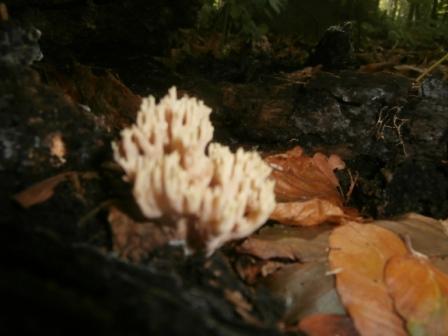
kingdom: Fungi
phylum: Basidiomycota
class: Agaricomycetes
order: Gomphales
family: Gomphaceae
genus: Ramaria
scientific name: Ramaria
